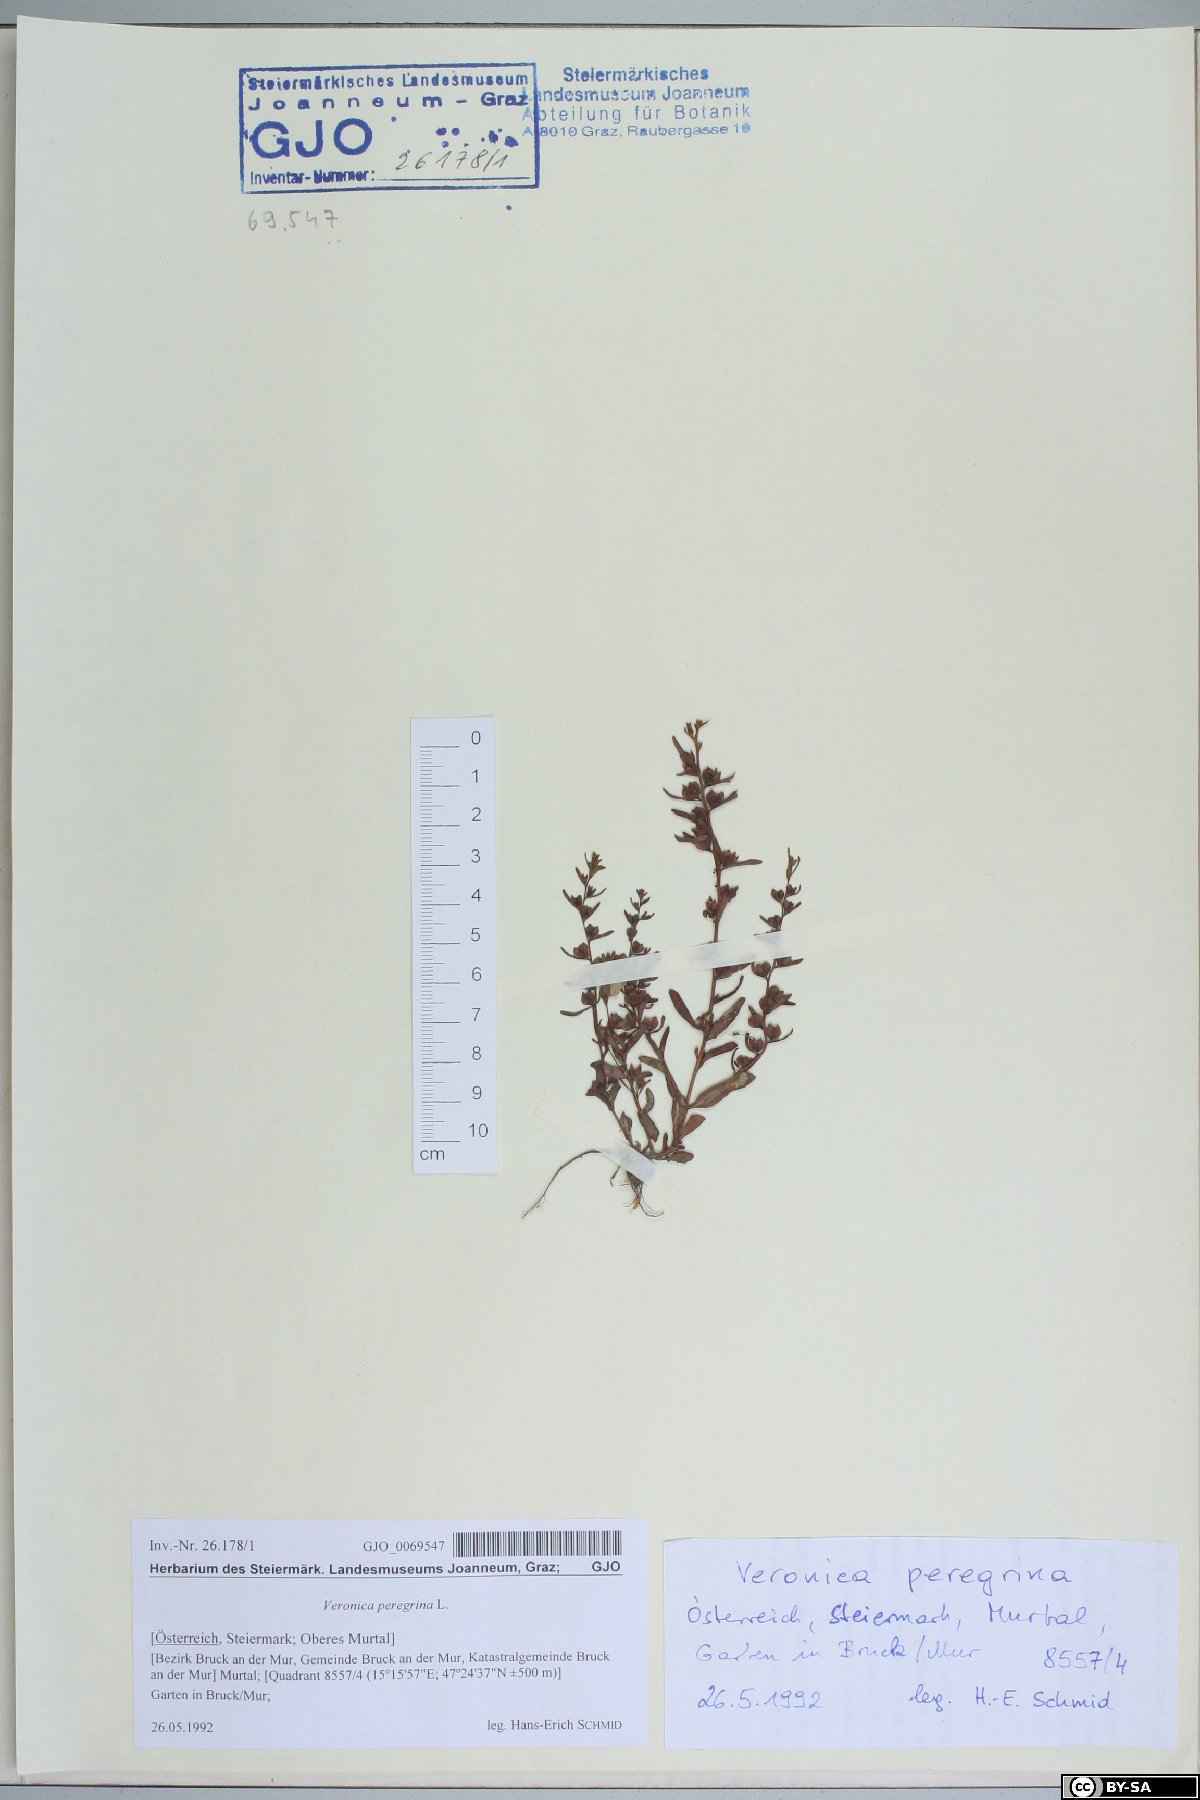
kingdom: Plantae
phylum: Tracheophyta
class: Magnoliopsida
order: Lamiales
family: Plantaginaceae
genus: Veronica
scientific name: Veronica peregrina
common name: Neckweed
